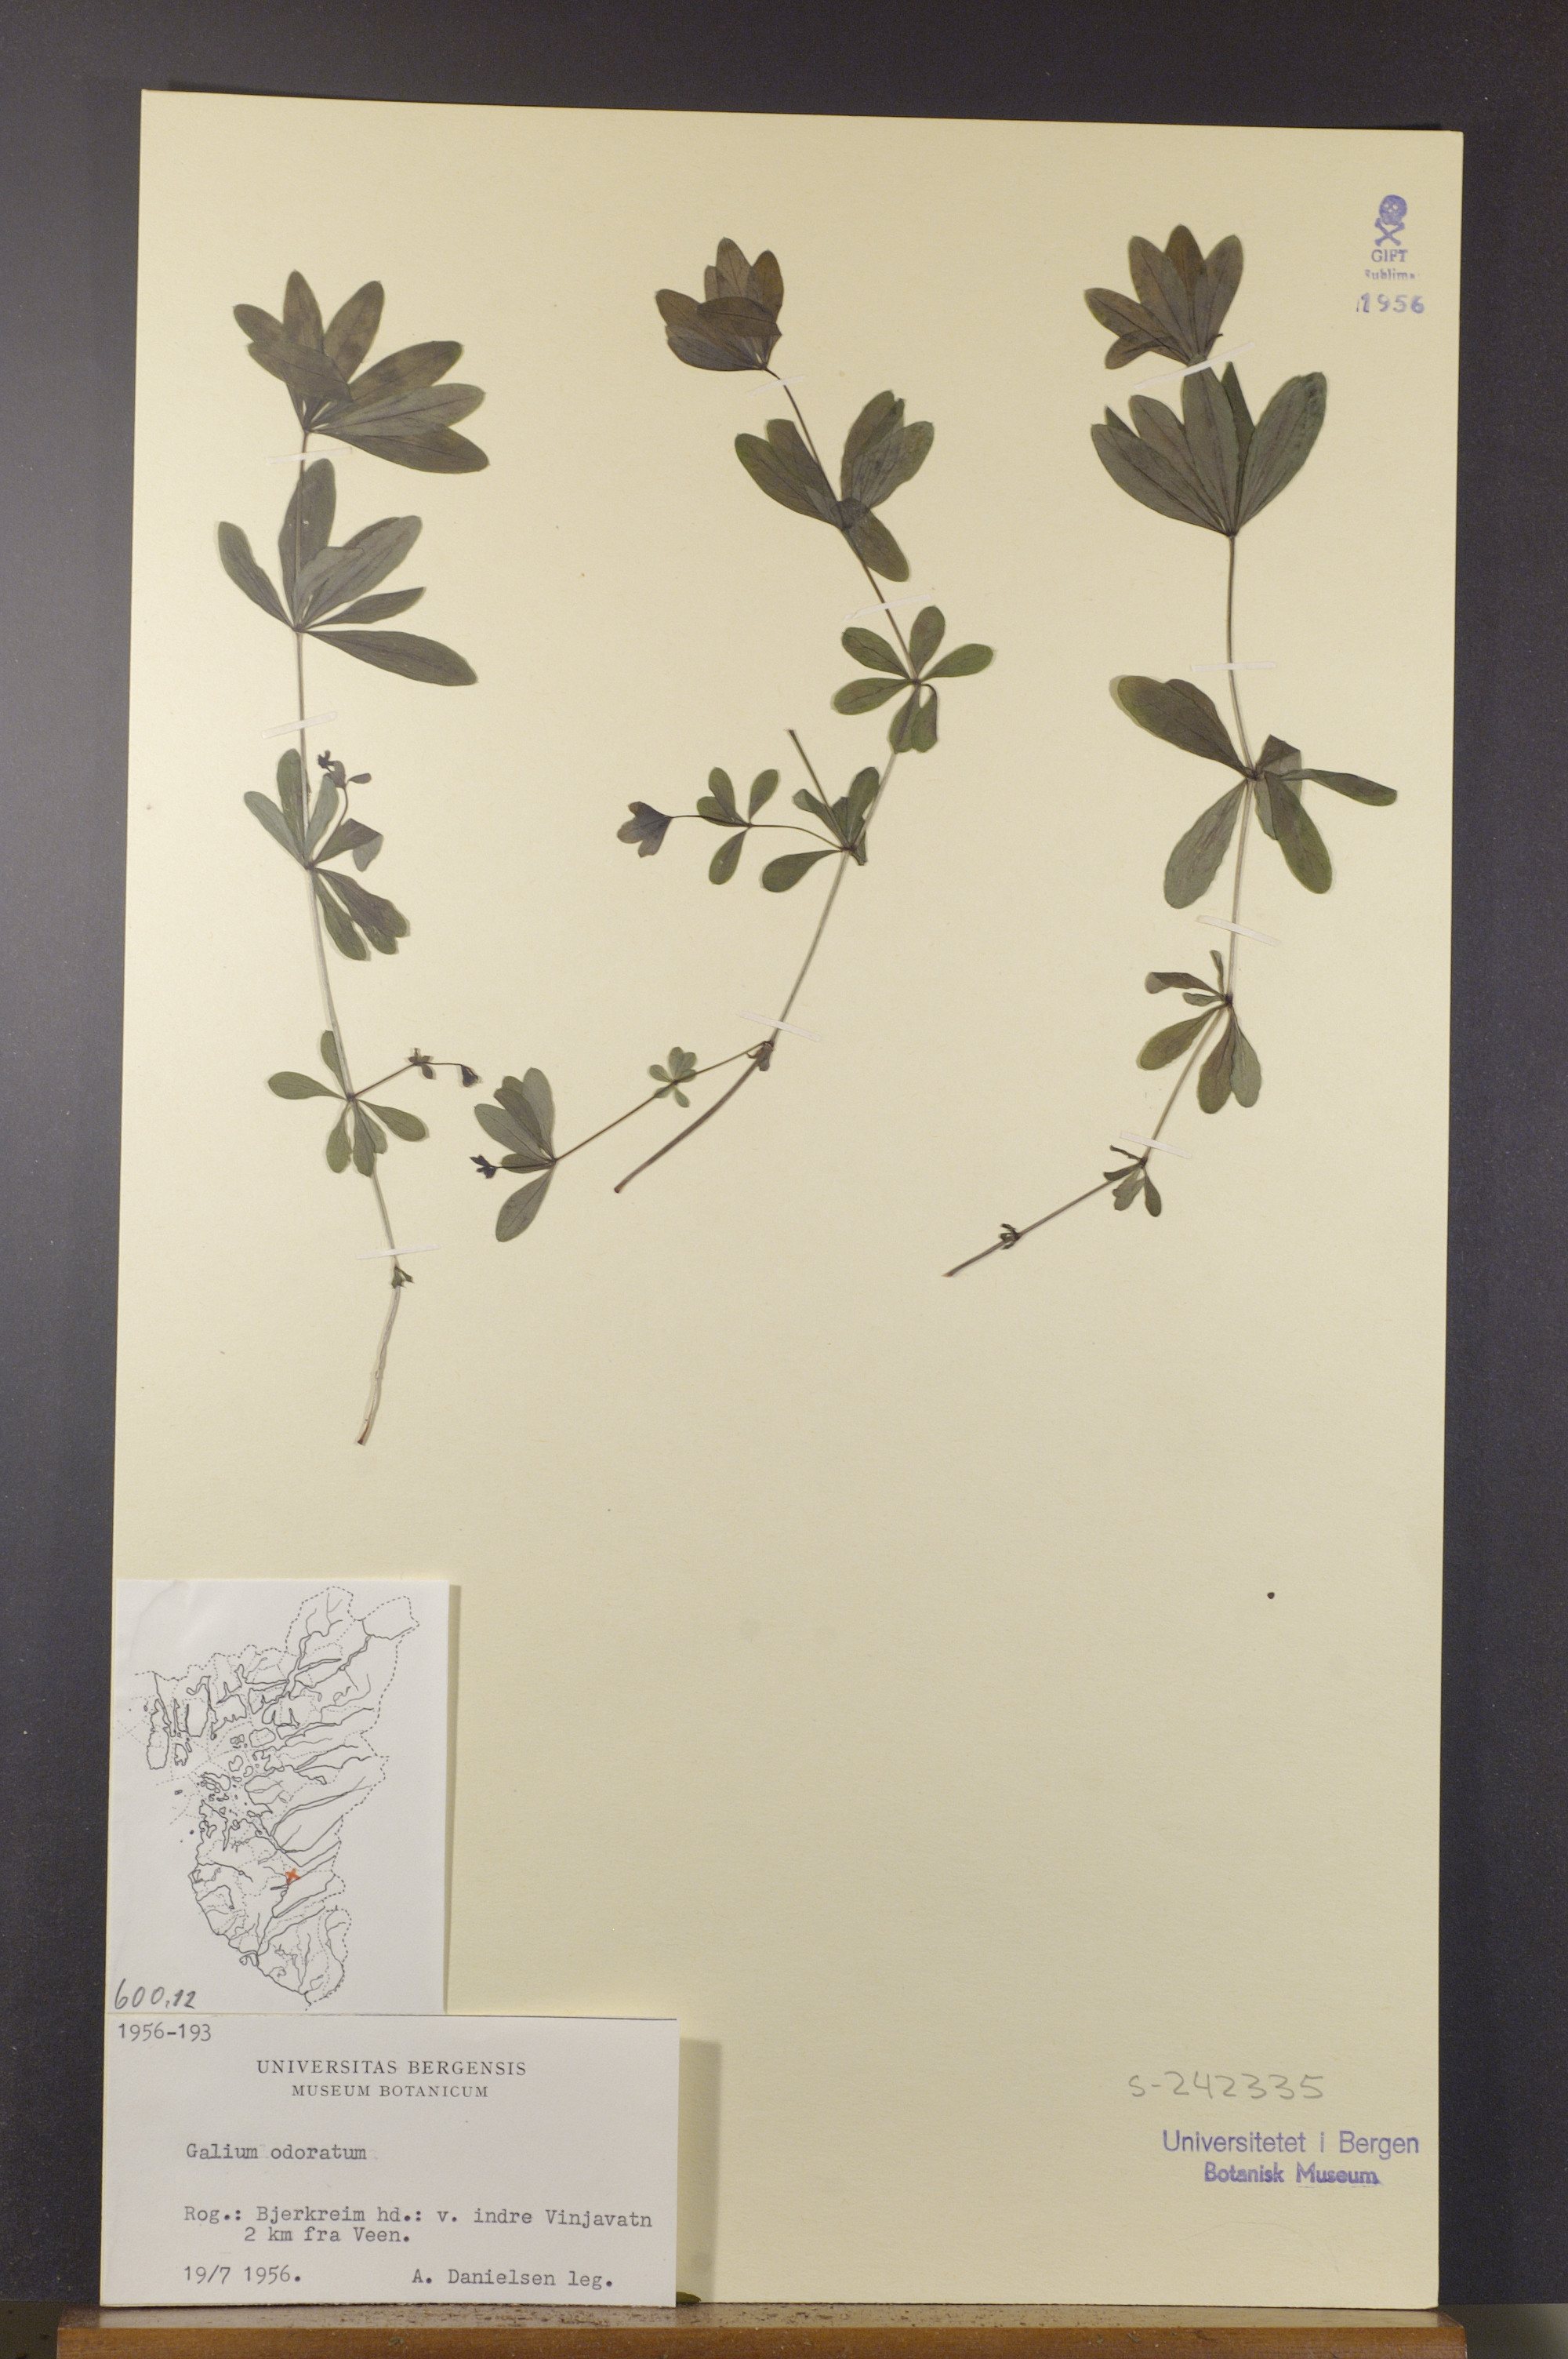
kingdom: Plantae
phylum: Tracheophyta
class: Magnoliopsida
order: Gentianales
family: Rubiaceae
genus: Galium
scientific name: Galium odoratum
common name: Sweet woodruff
